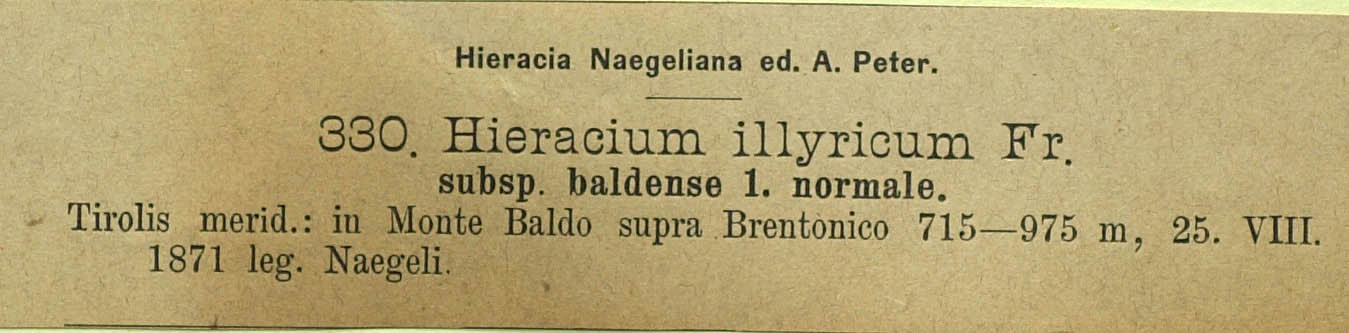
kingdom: Plantae
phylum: Tracheophyta
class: Magnoliopsida
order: Asterales
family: Asteraceae
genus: Hieracium
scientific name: Hieracium calcareum
